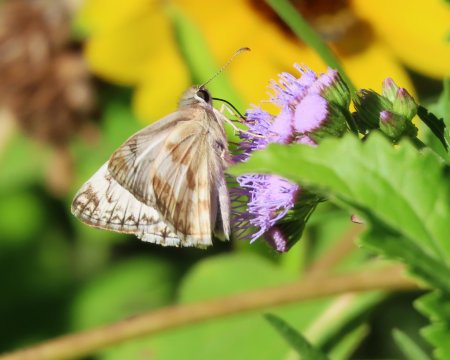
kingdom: Animalia
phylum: Arthropoda
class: Insecta
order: Lepidoptera
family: Hesperiidae
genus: Heliopetes
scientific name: Heliopetes ericetorum
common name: Northern White-Skipper
